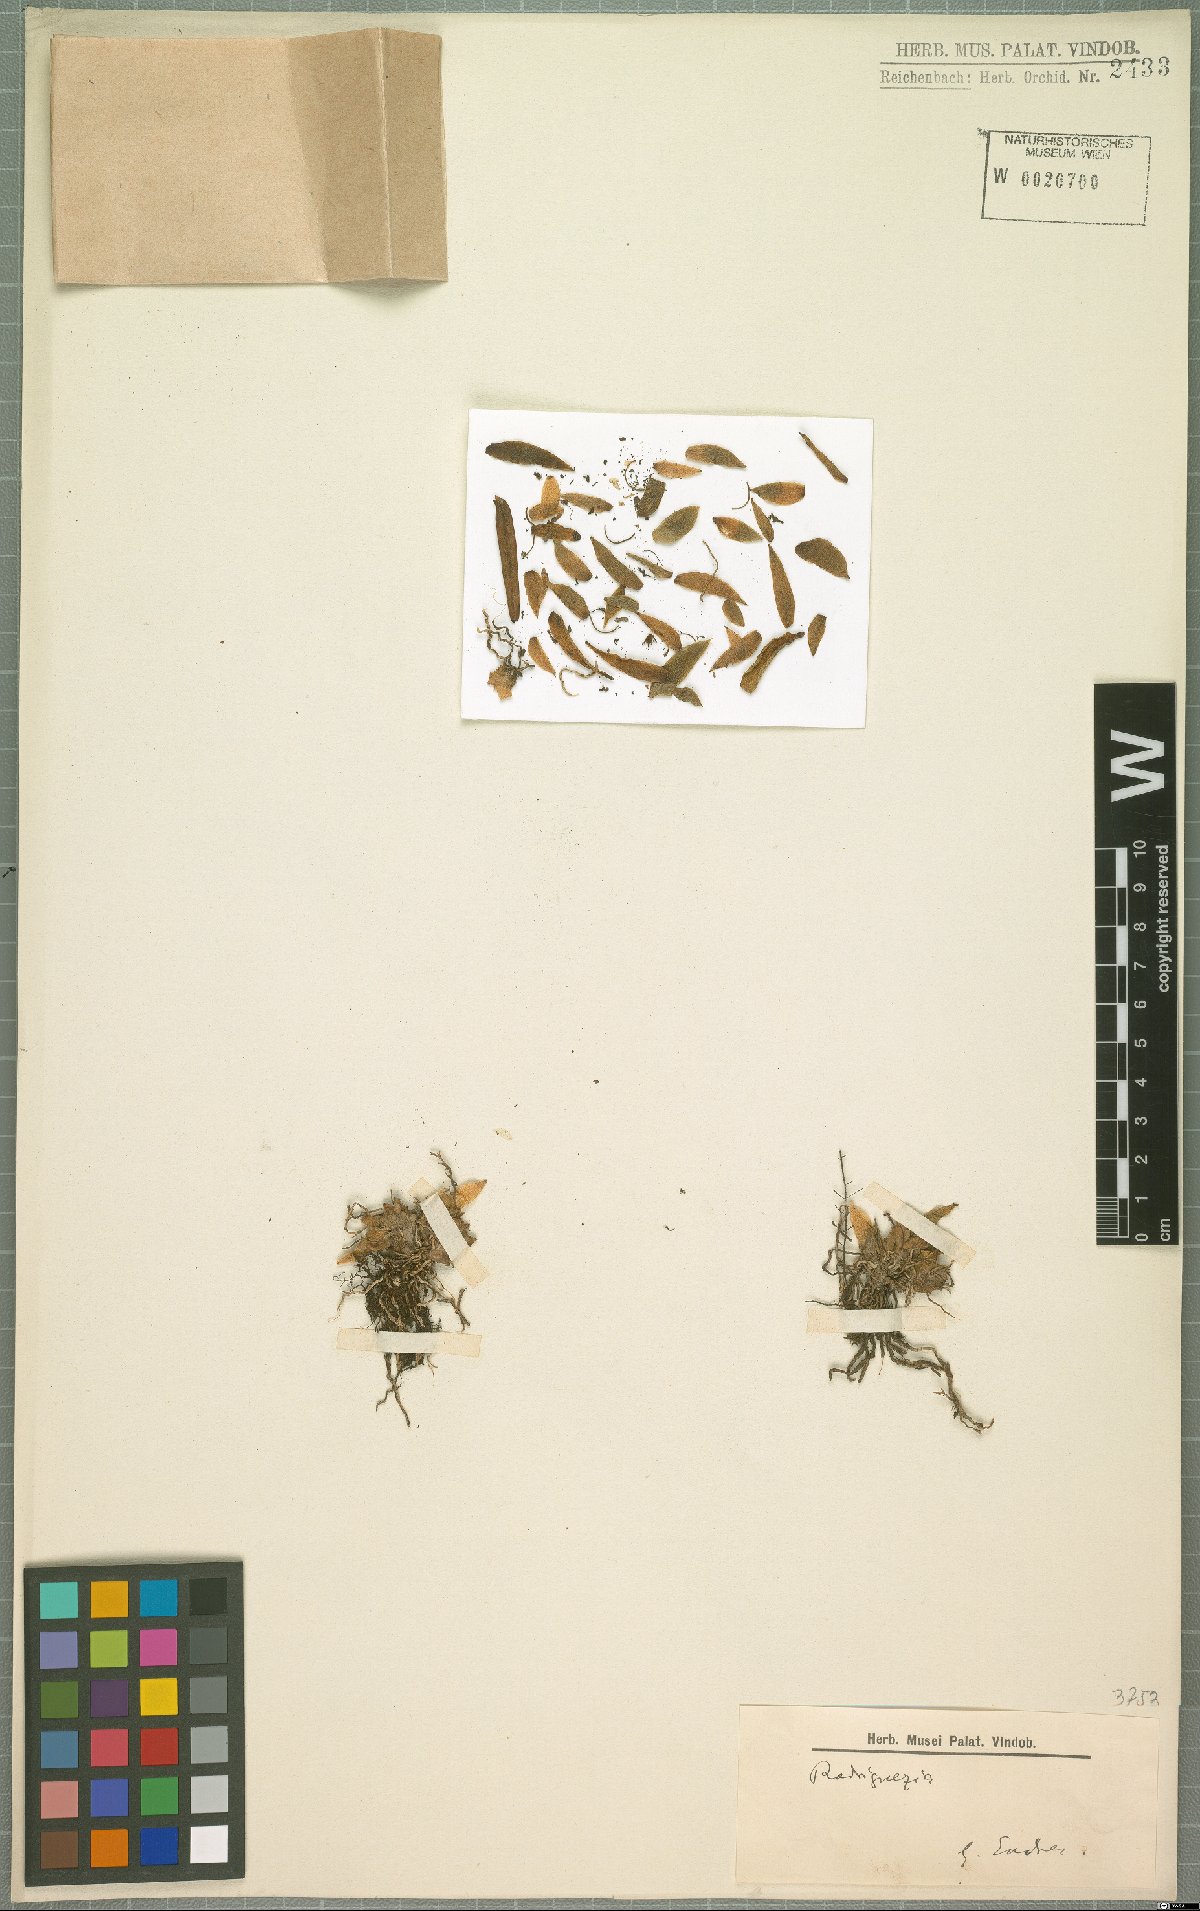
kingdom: Plantae
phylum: Tracheophyta
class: Liliopsida
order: Asparagales
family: Orchidaceae
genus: Oncidium
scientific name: Oncidium macrobulbon
